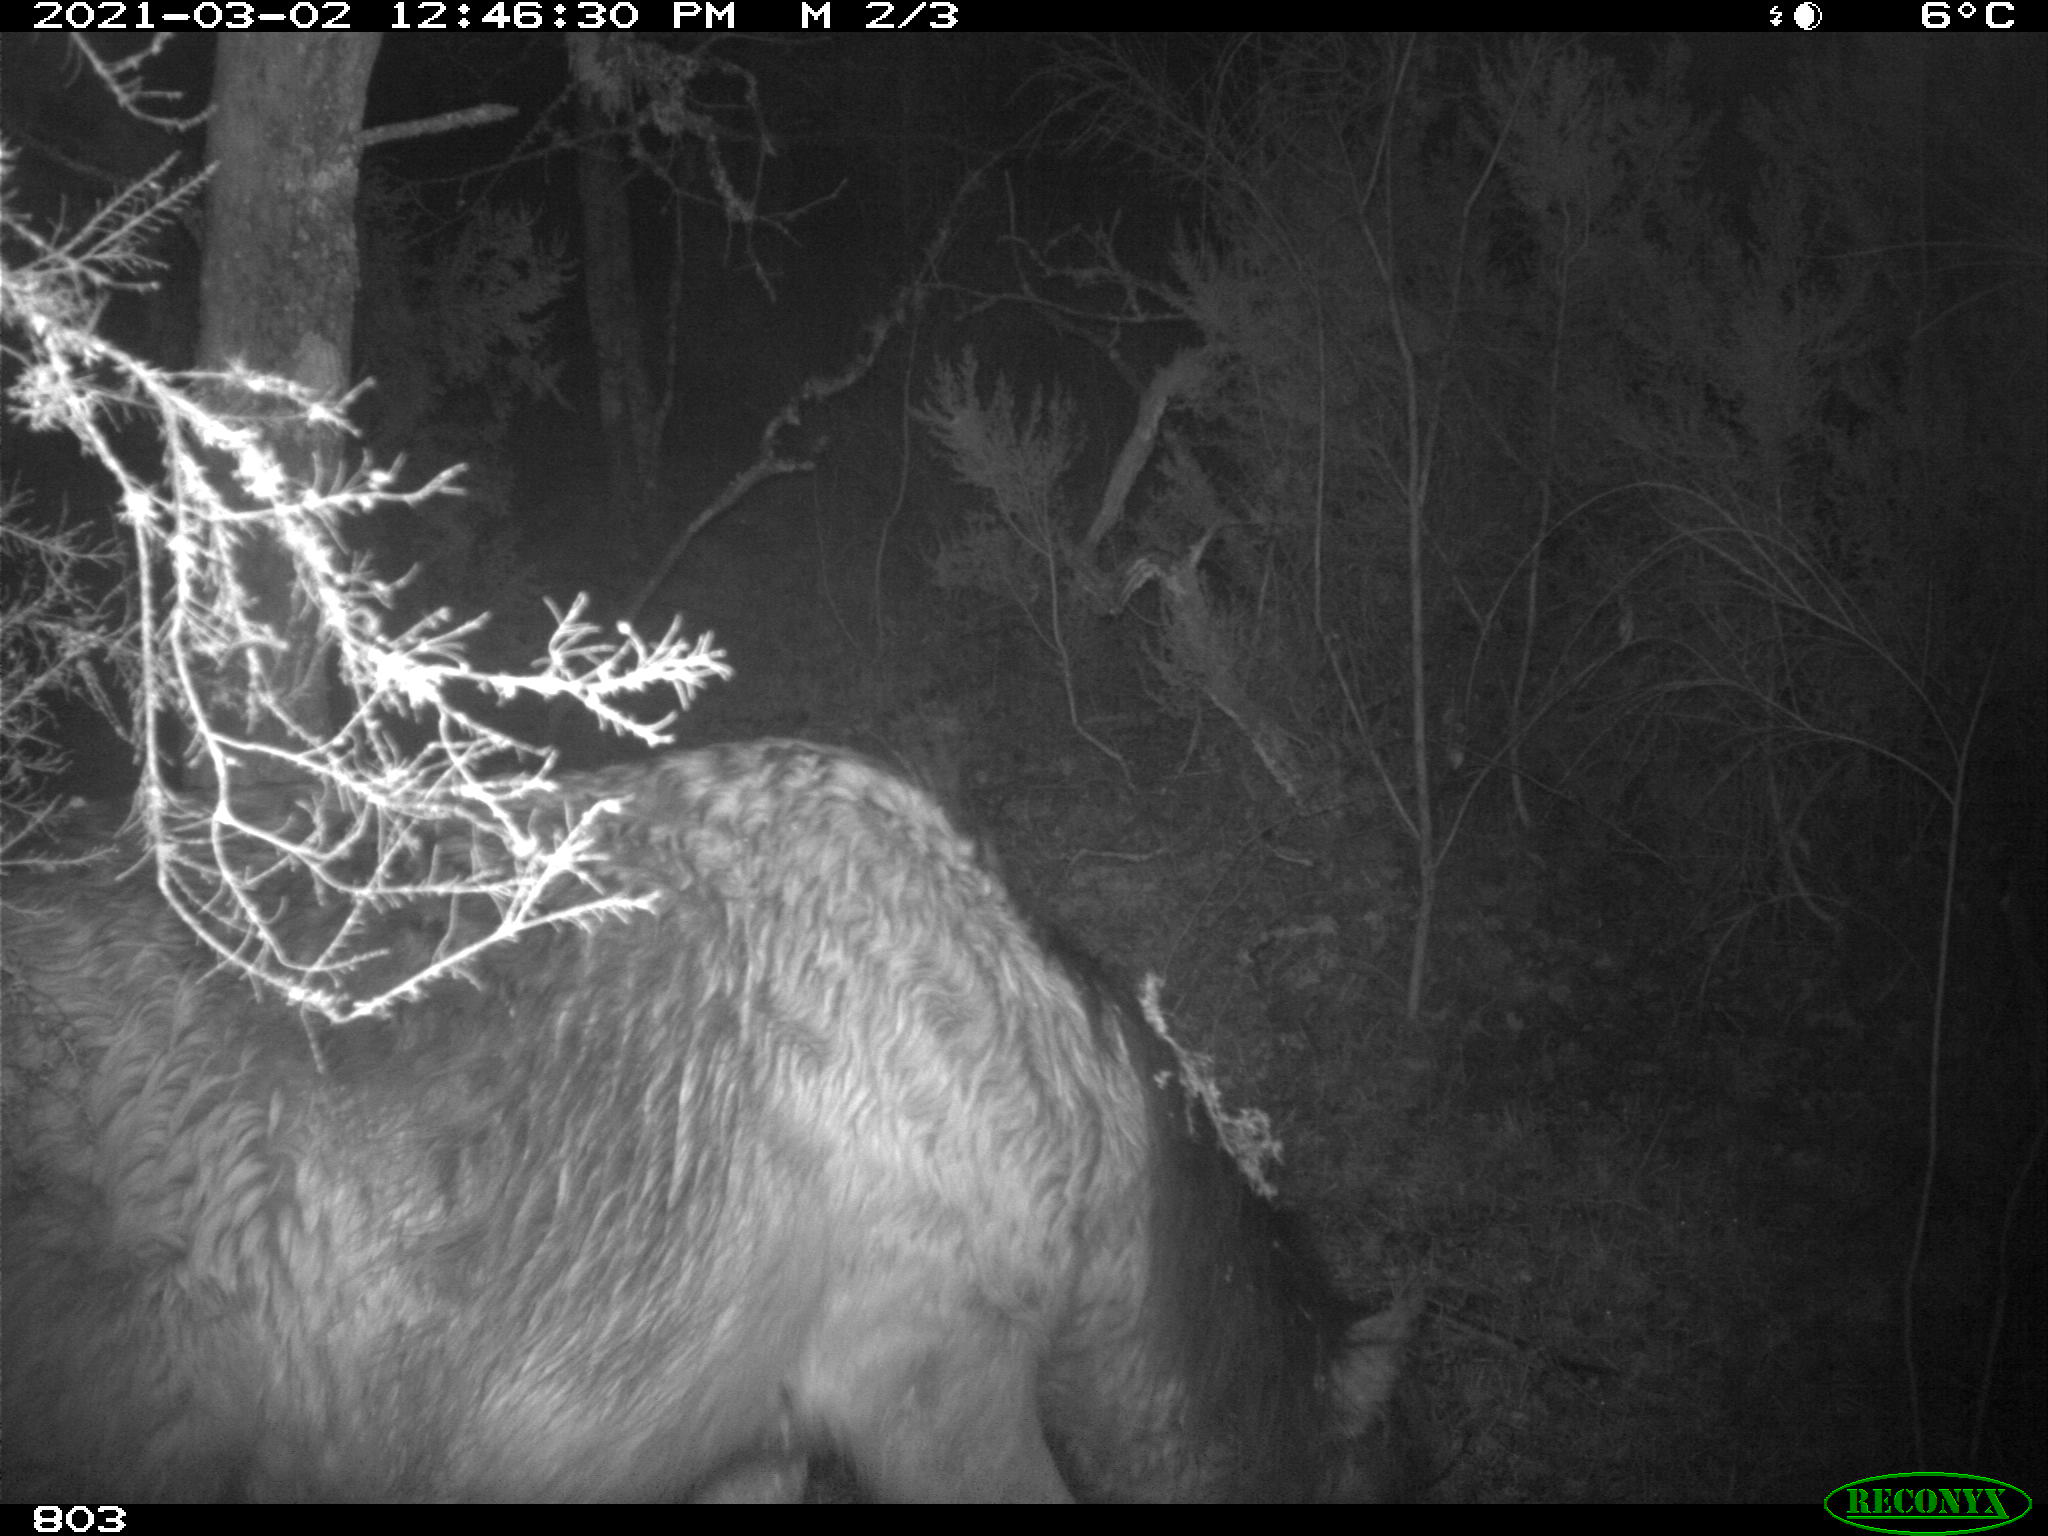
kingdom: Animalia
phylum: Chordata
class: Mammalia
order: Perissodactyla
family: Equidae
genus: Equus
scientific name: Equus caballus
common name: Horse
